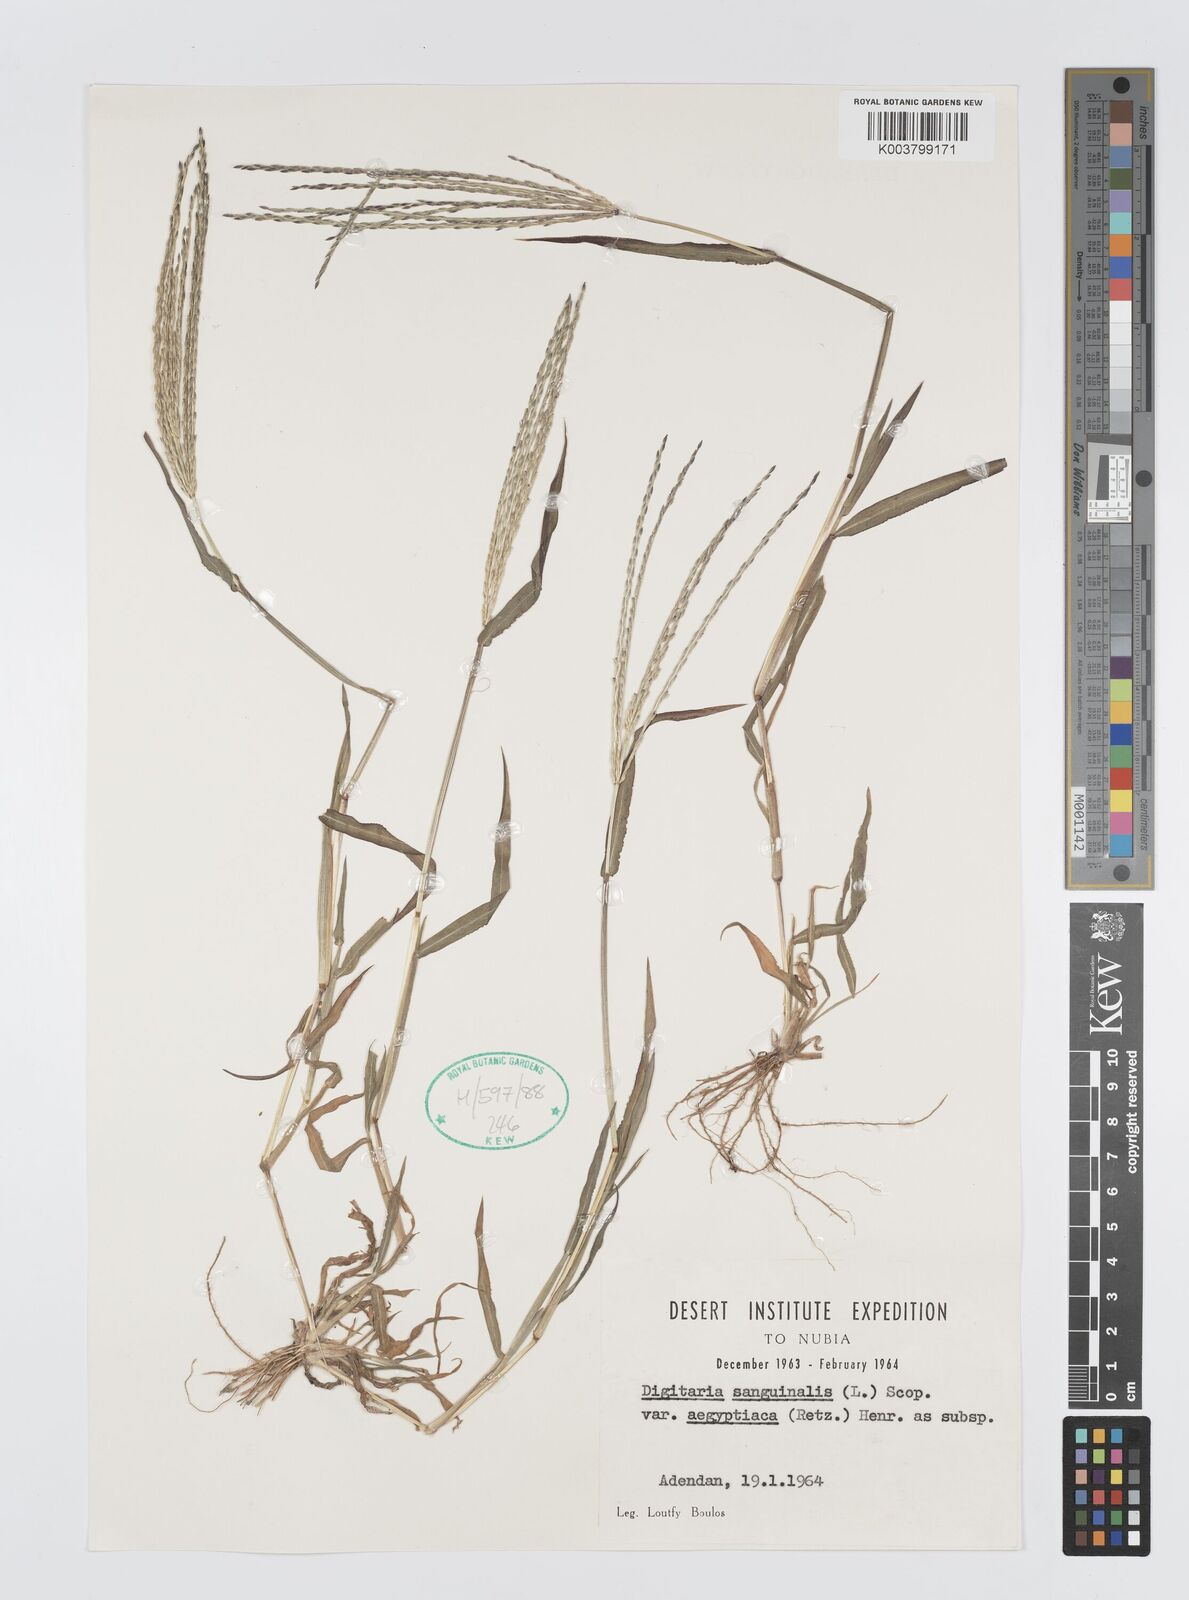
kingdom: Plantae
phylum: Tracheophyta
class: Liliopsida
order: Poales
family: Poaceae
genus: Digitaria
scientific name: Digitaria sanguinalis
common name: Hairy crabgrass
